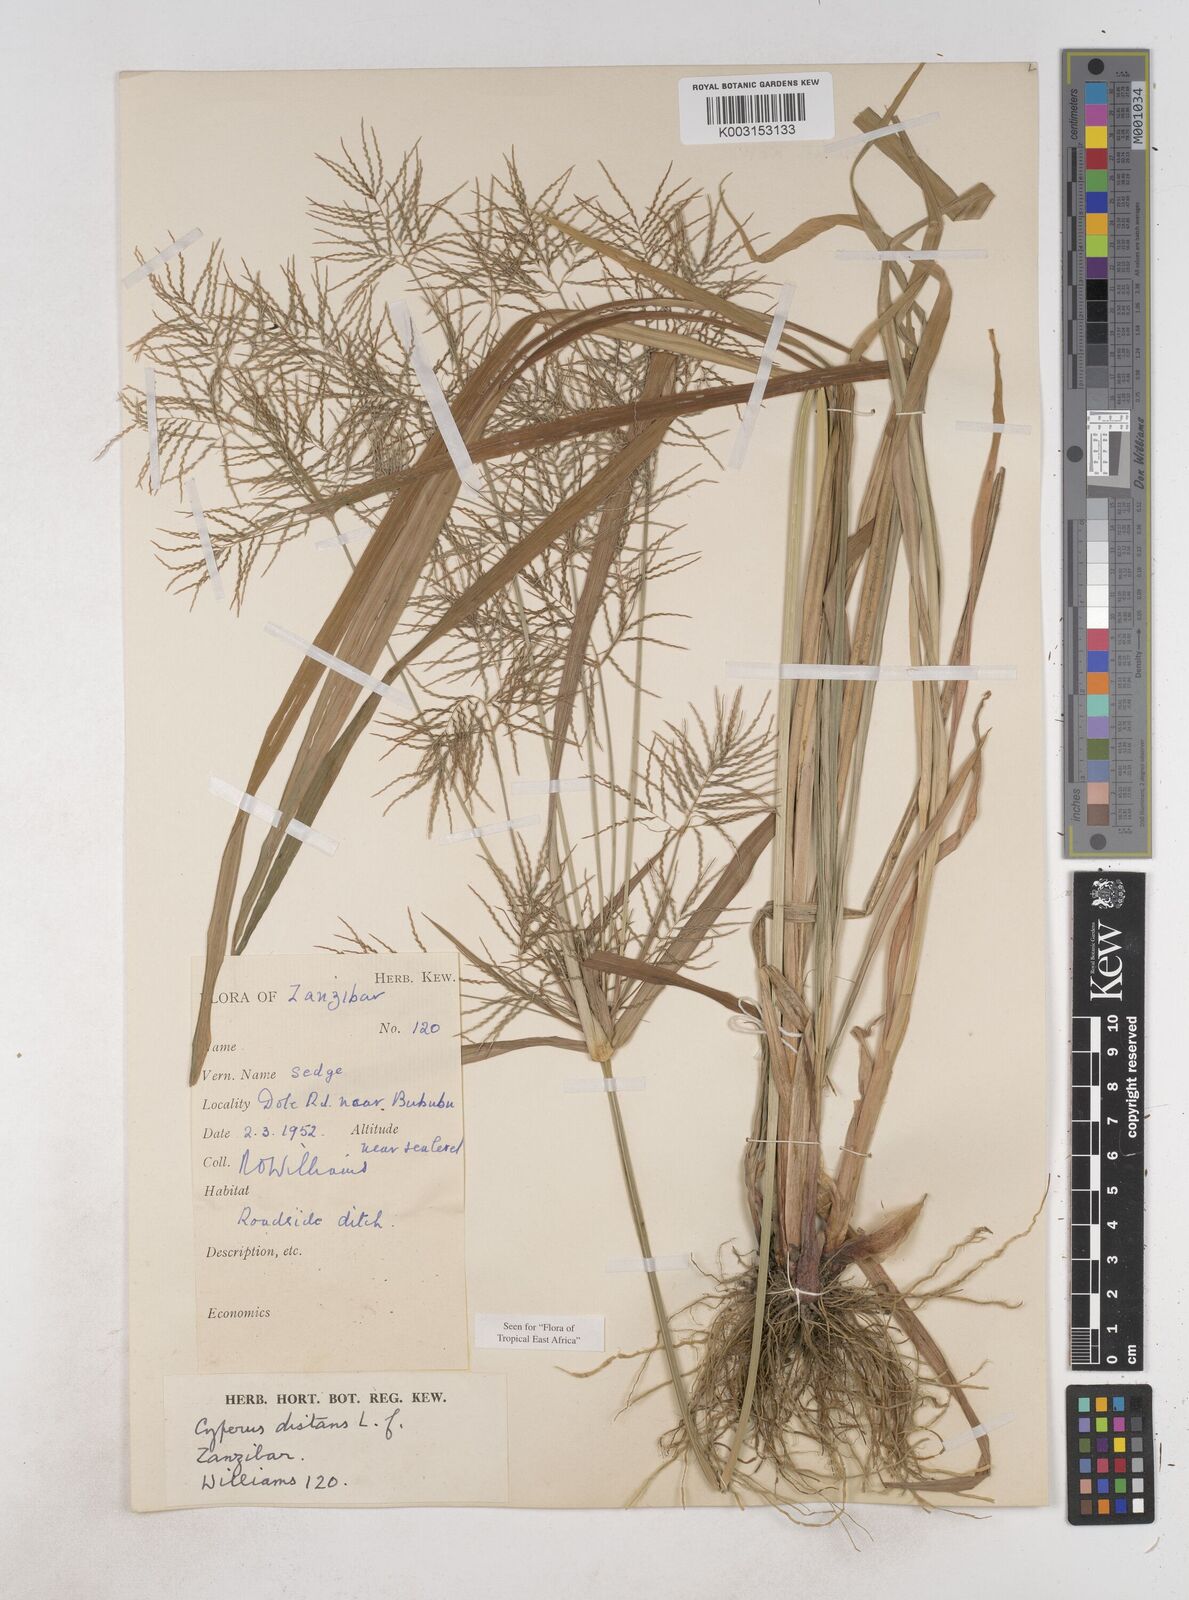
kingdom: Plantae
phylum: Tracheophyta
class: Liliopsida
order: Poales
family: Cyperaceae
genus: Cyperus
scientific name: Cyperus distans
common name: Slender cyperus
